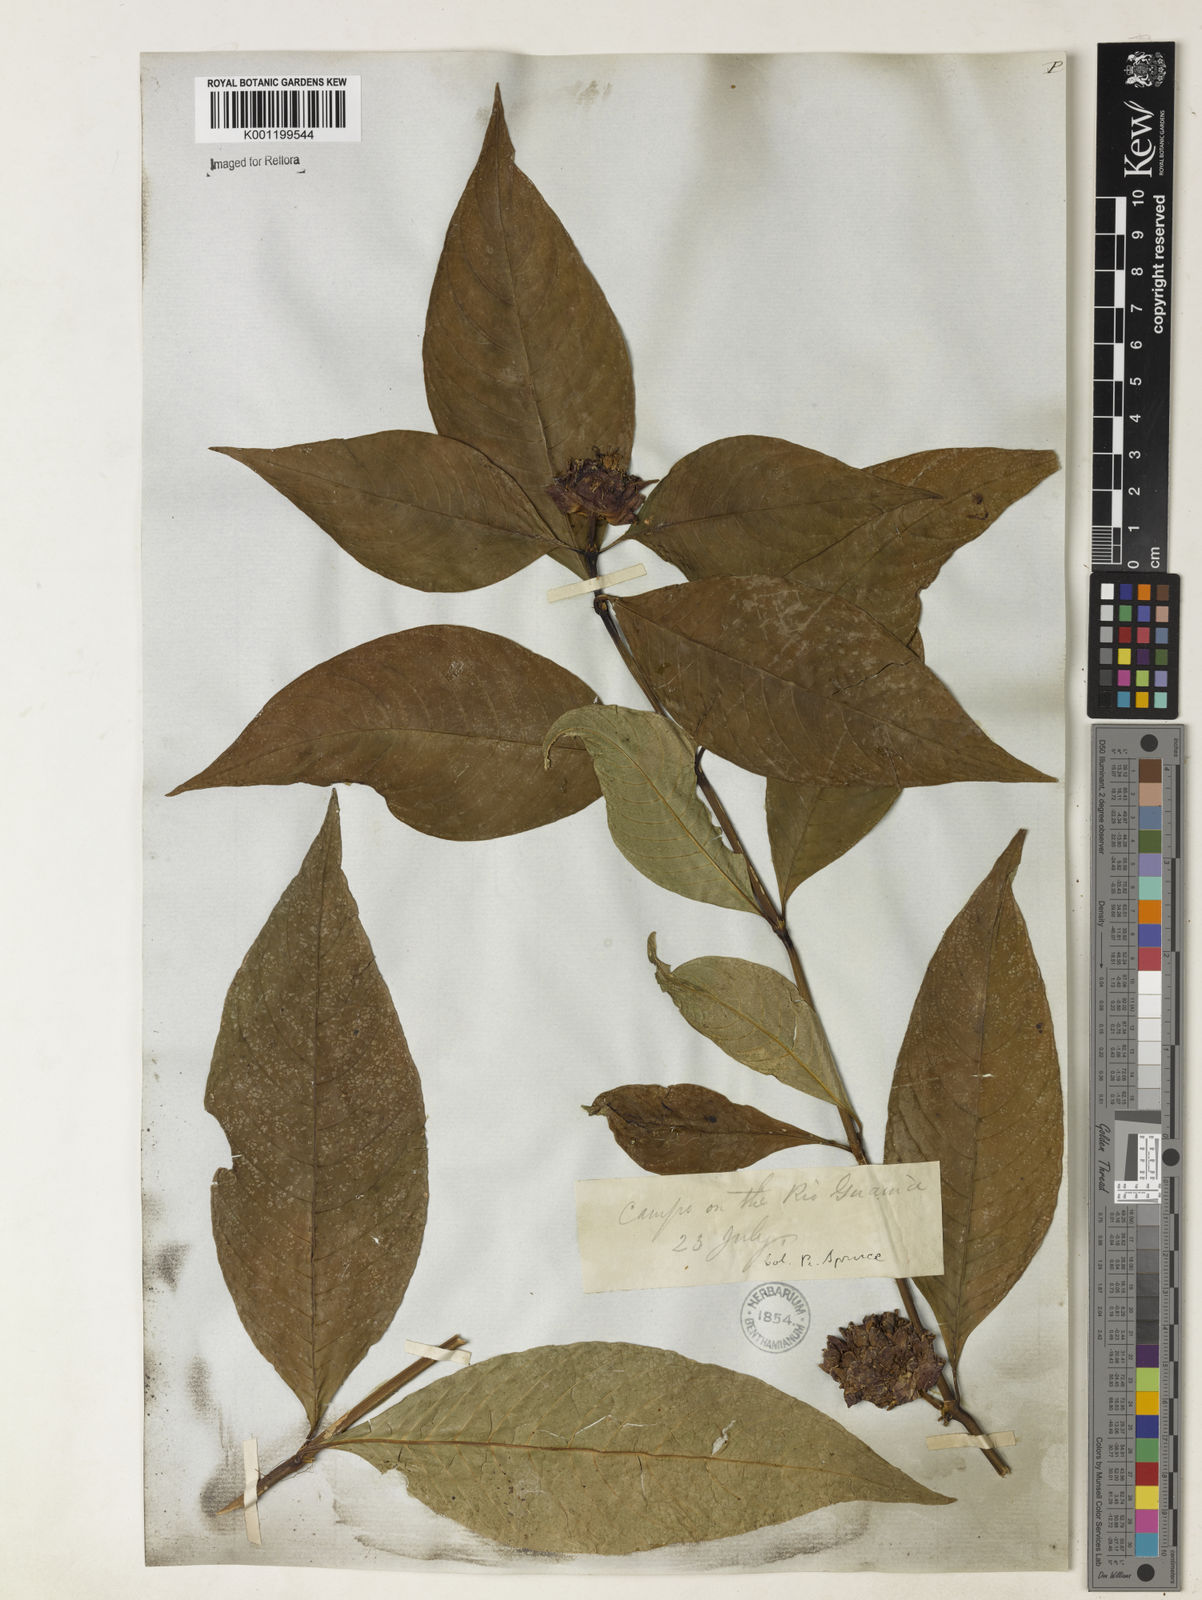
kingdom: Plantae
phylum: Tracheophyta
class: Magnoliopsida
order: Gentianales
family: Rubiaceae
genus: Psychotria
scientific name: Psychotria
